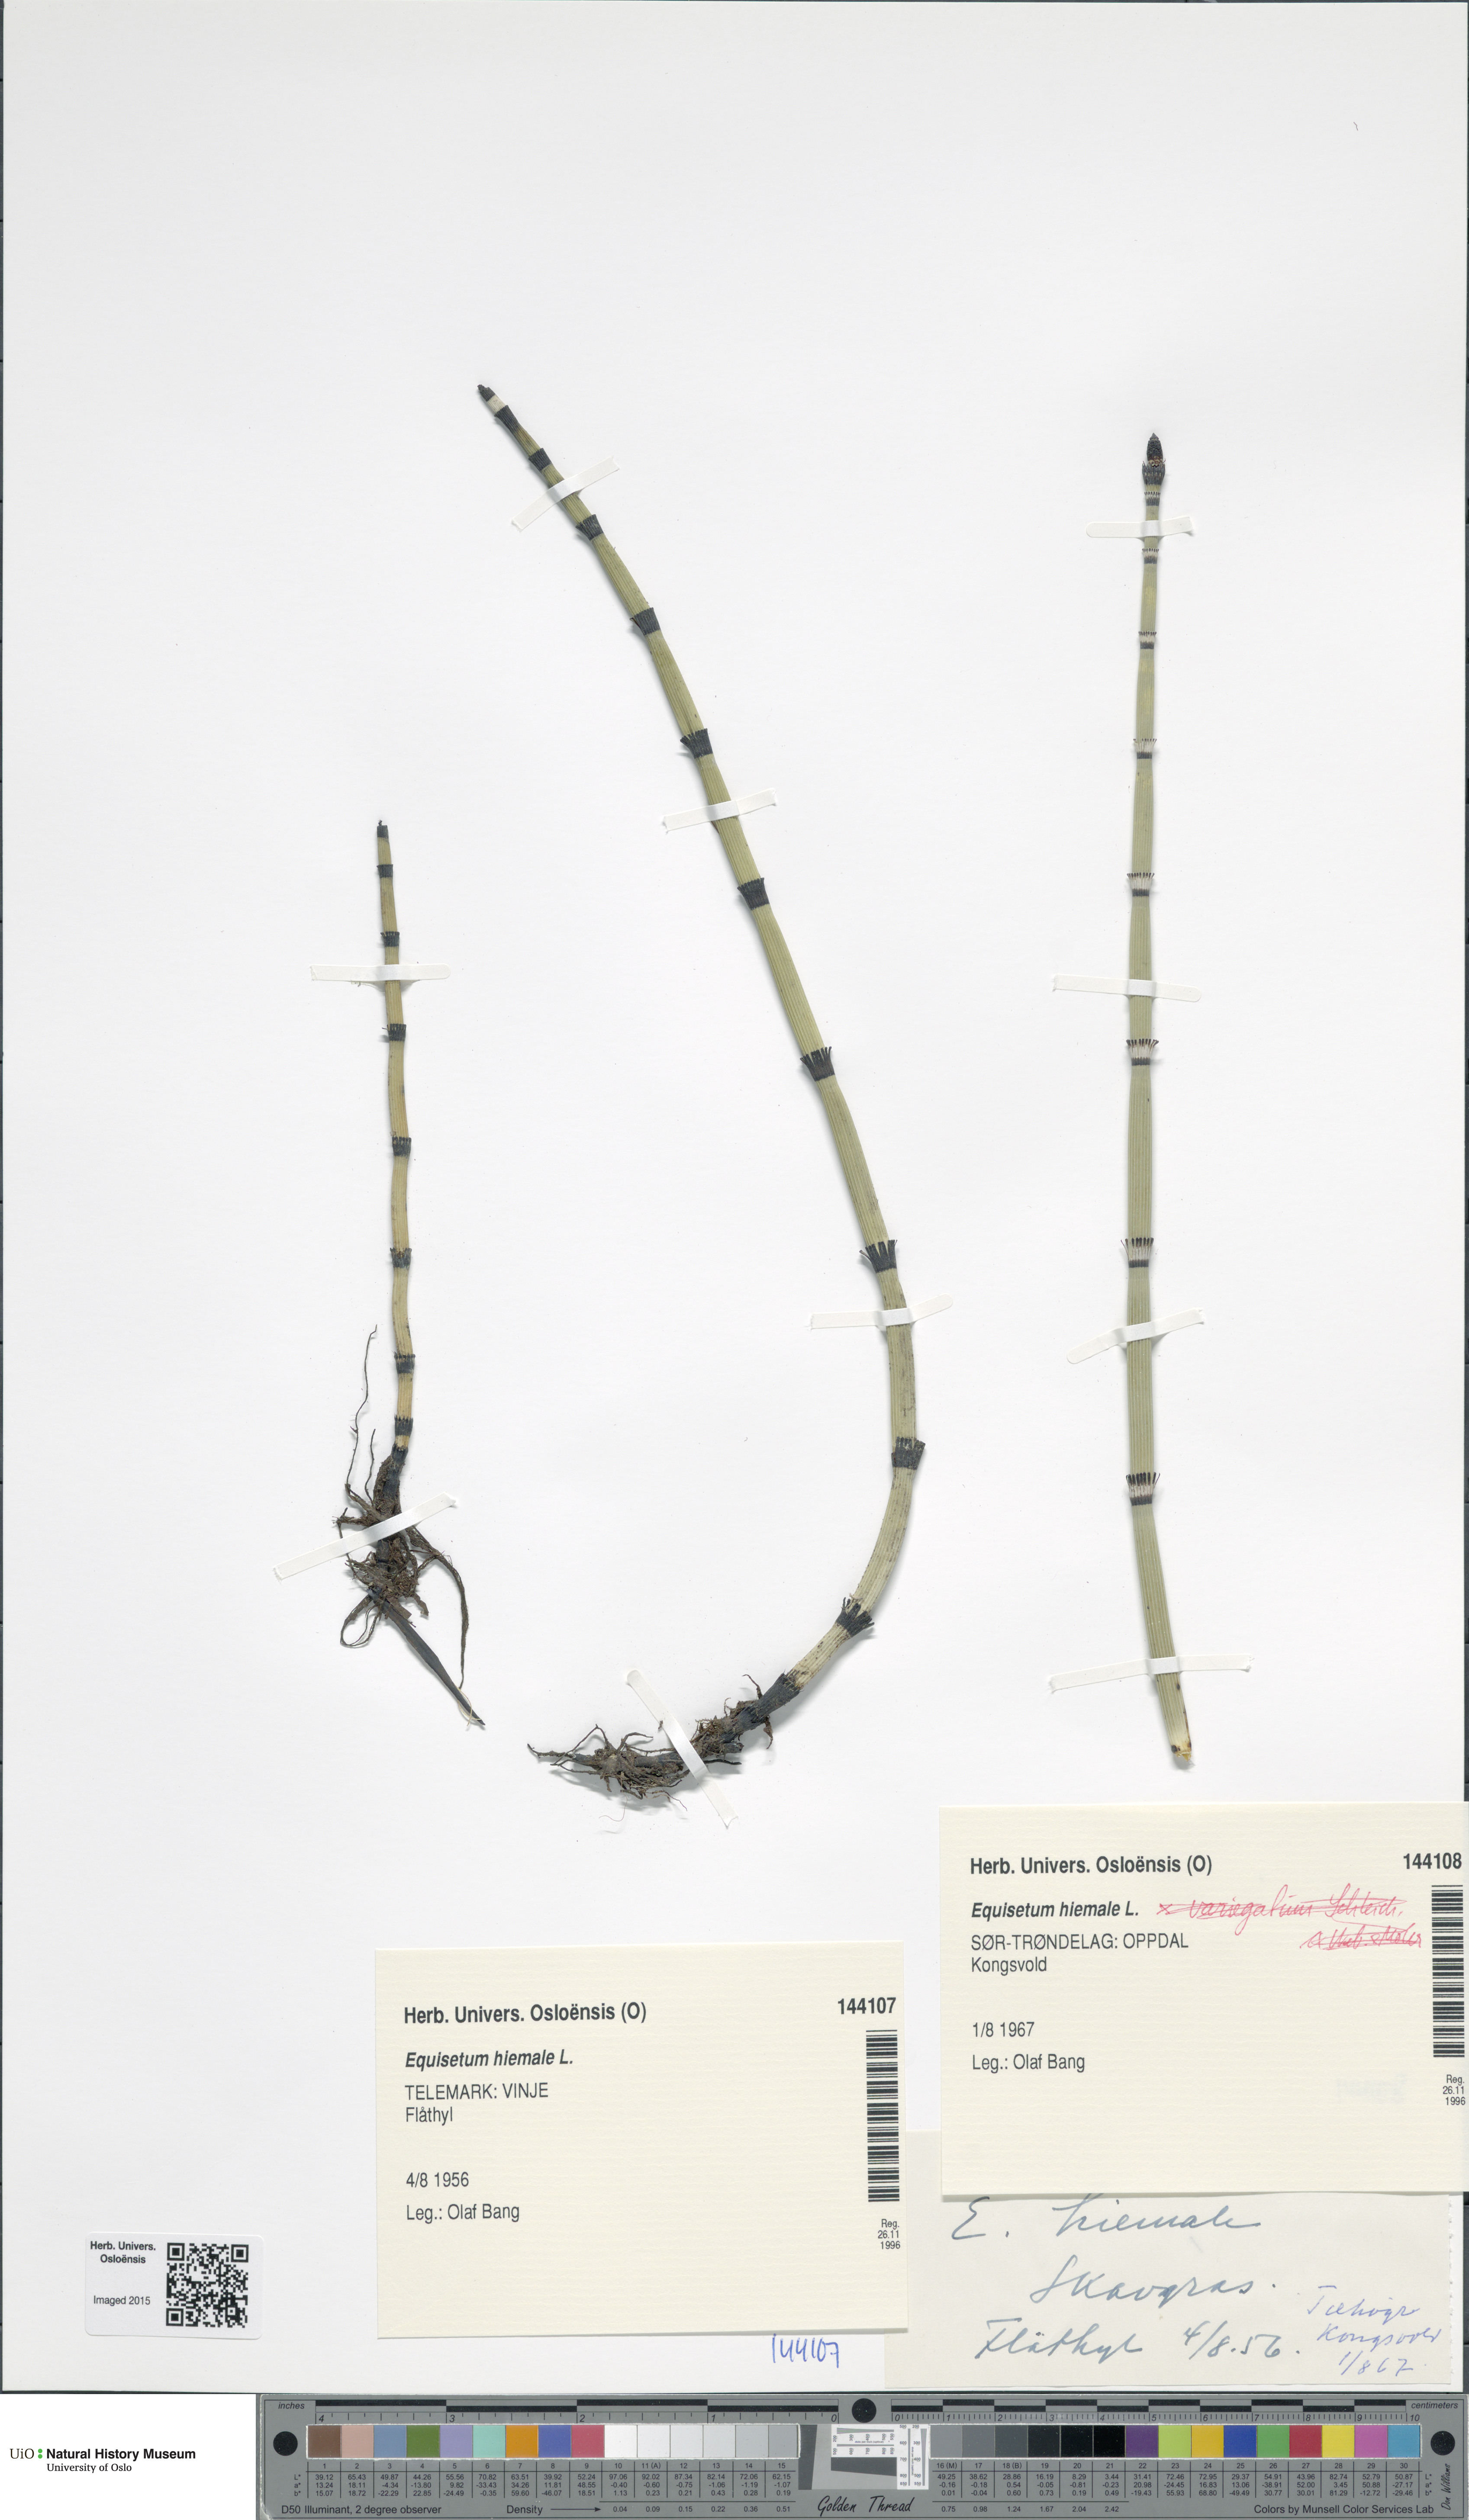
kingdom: Plantae
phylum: Tracheophyta
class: Polypodiopsida
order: Equisetales
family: Equisetaceae
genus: Equisetum
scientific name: Equisetum hyemale
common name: Rough horsetail
